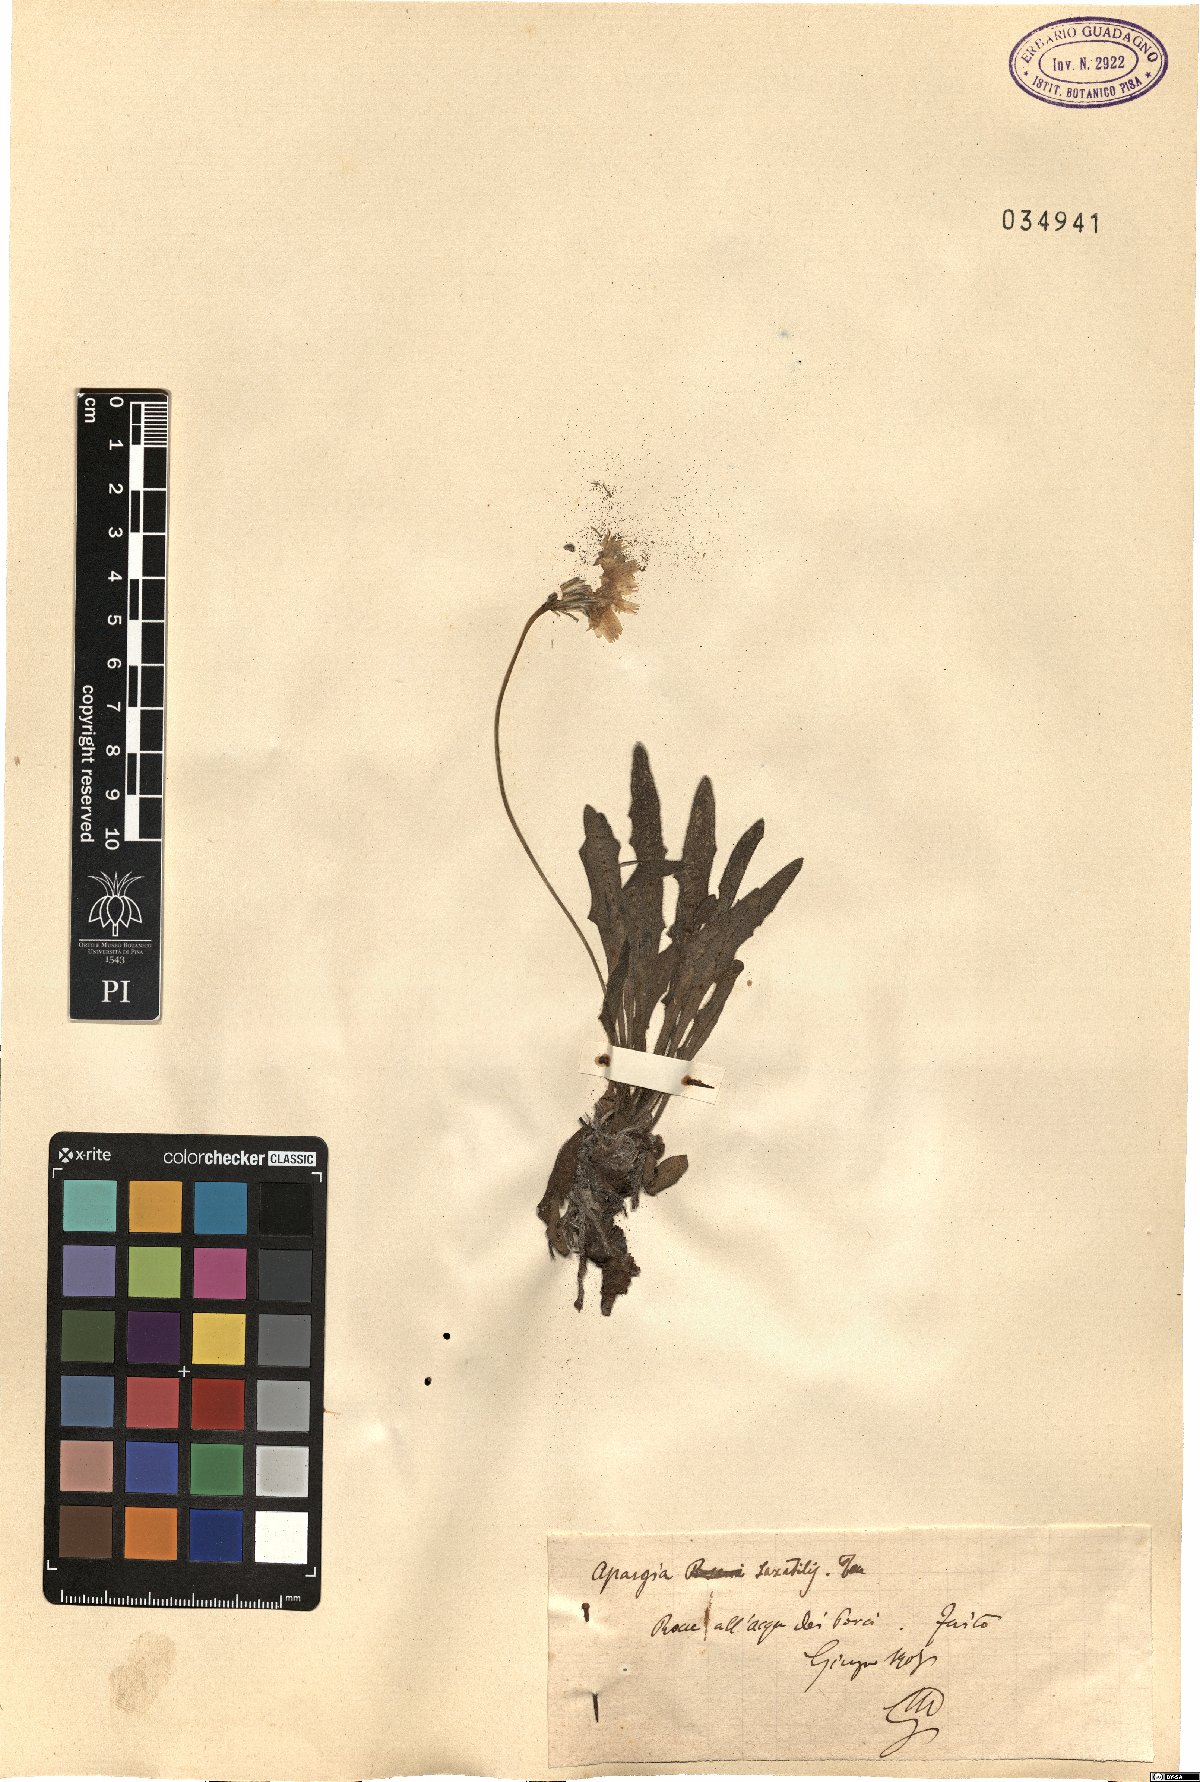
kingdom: Plantae
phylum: Tracheophyta
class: Magnoliopsida
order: Asterales
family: Asteraceae
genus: Leontodon
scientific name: Leontodon crispus
